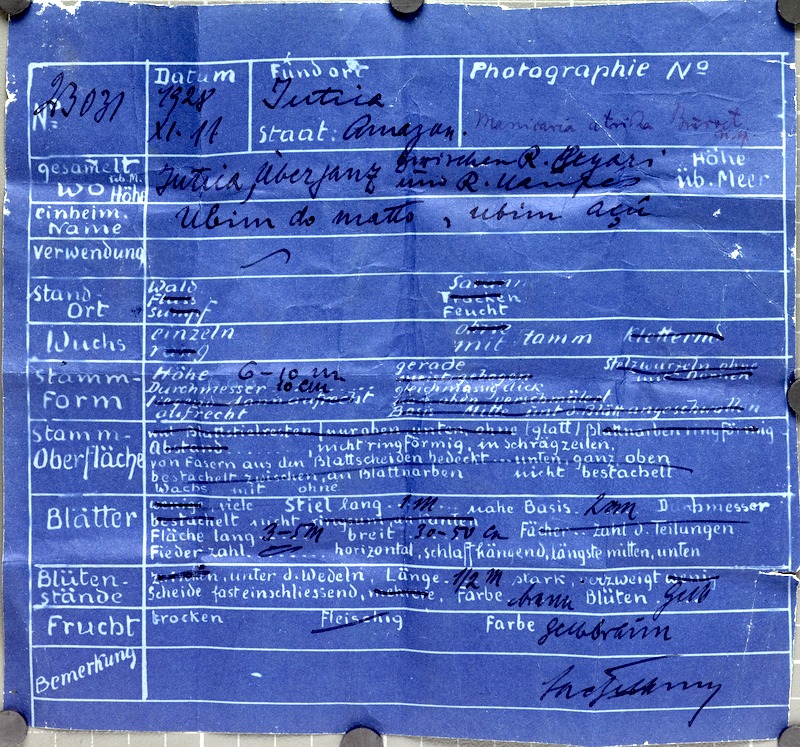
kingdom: Plantae
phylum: Tracheophyta
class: Liliopsida
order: Arecales
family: Arecaceae
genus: Manicaria
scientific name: Manicaria saccifera
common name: Sea coconut
